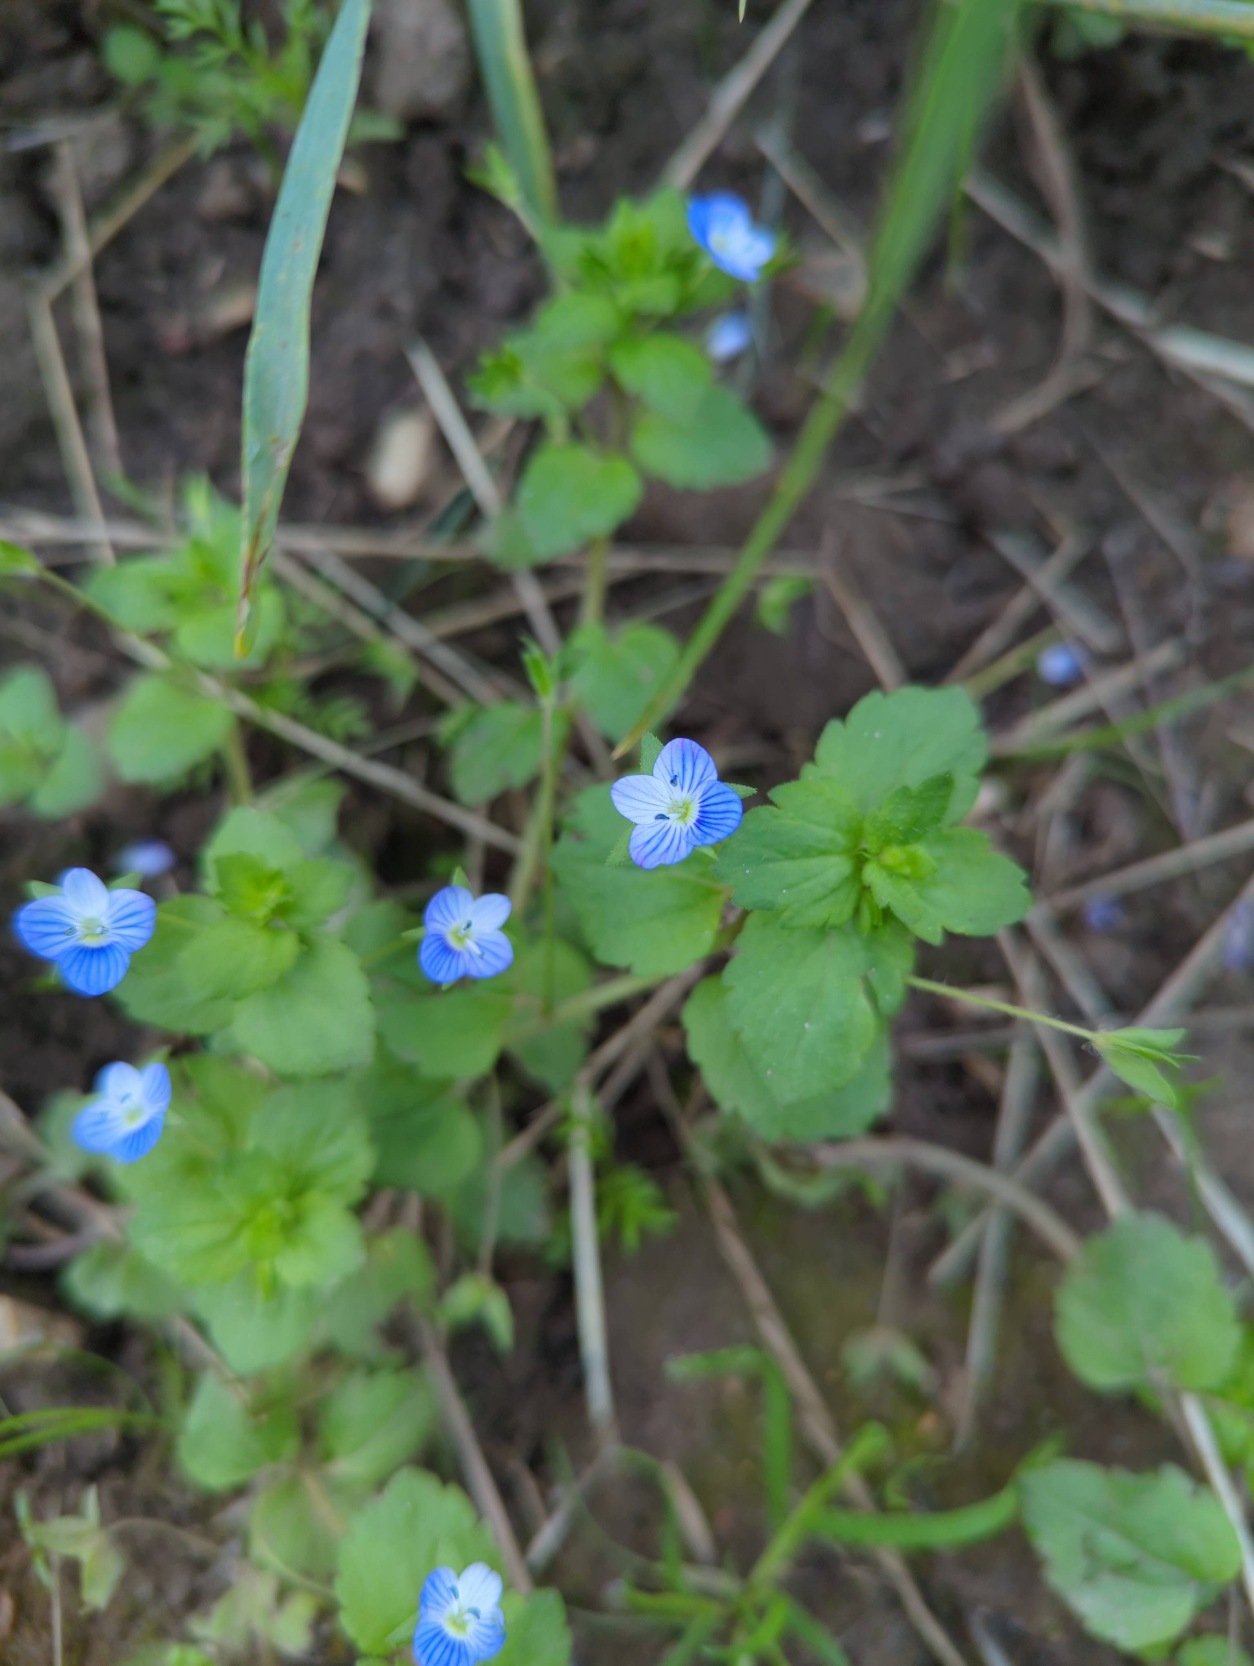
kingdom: Plantae
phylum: Tracheophyta
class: Magnoliopsida
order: Lamiales
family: Plantaginaceae
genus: Veronica
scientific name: Veronica persica
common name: Storkronet ærenpris
